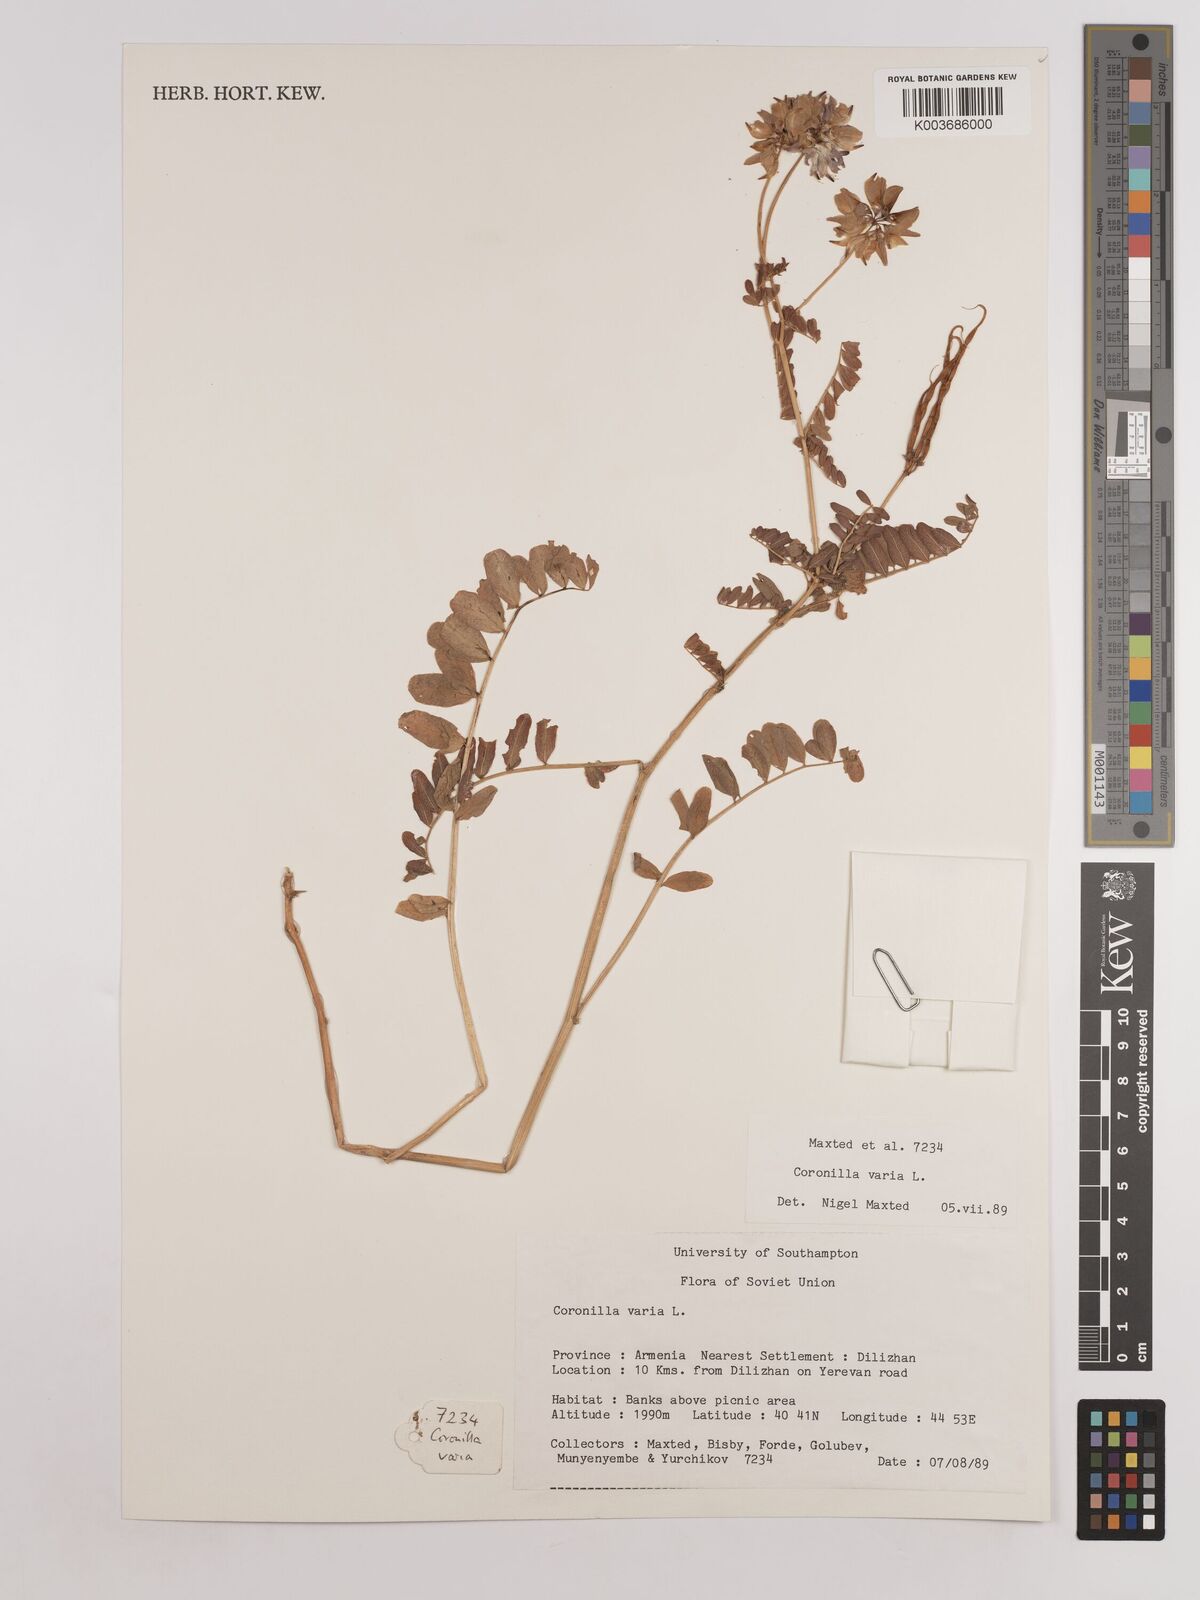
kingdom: Plantae
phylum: Tracheophyta
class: Magnoliopsida
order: Fabales
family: Fabaceae
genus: Coronilla
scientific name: Coronilla varia
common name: Crownvetch
